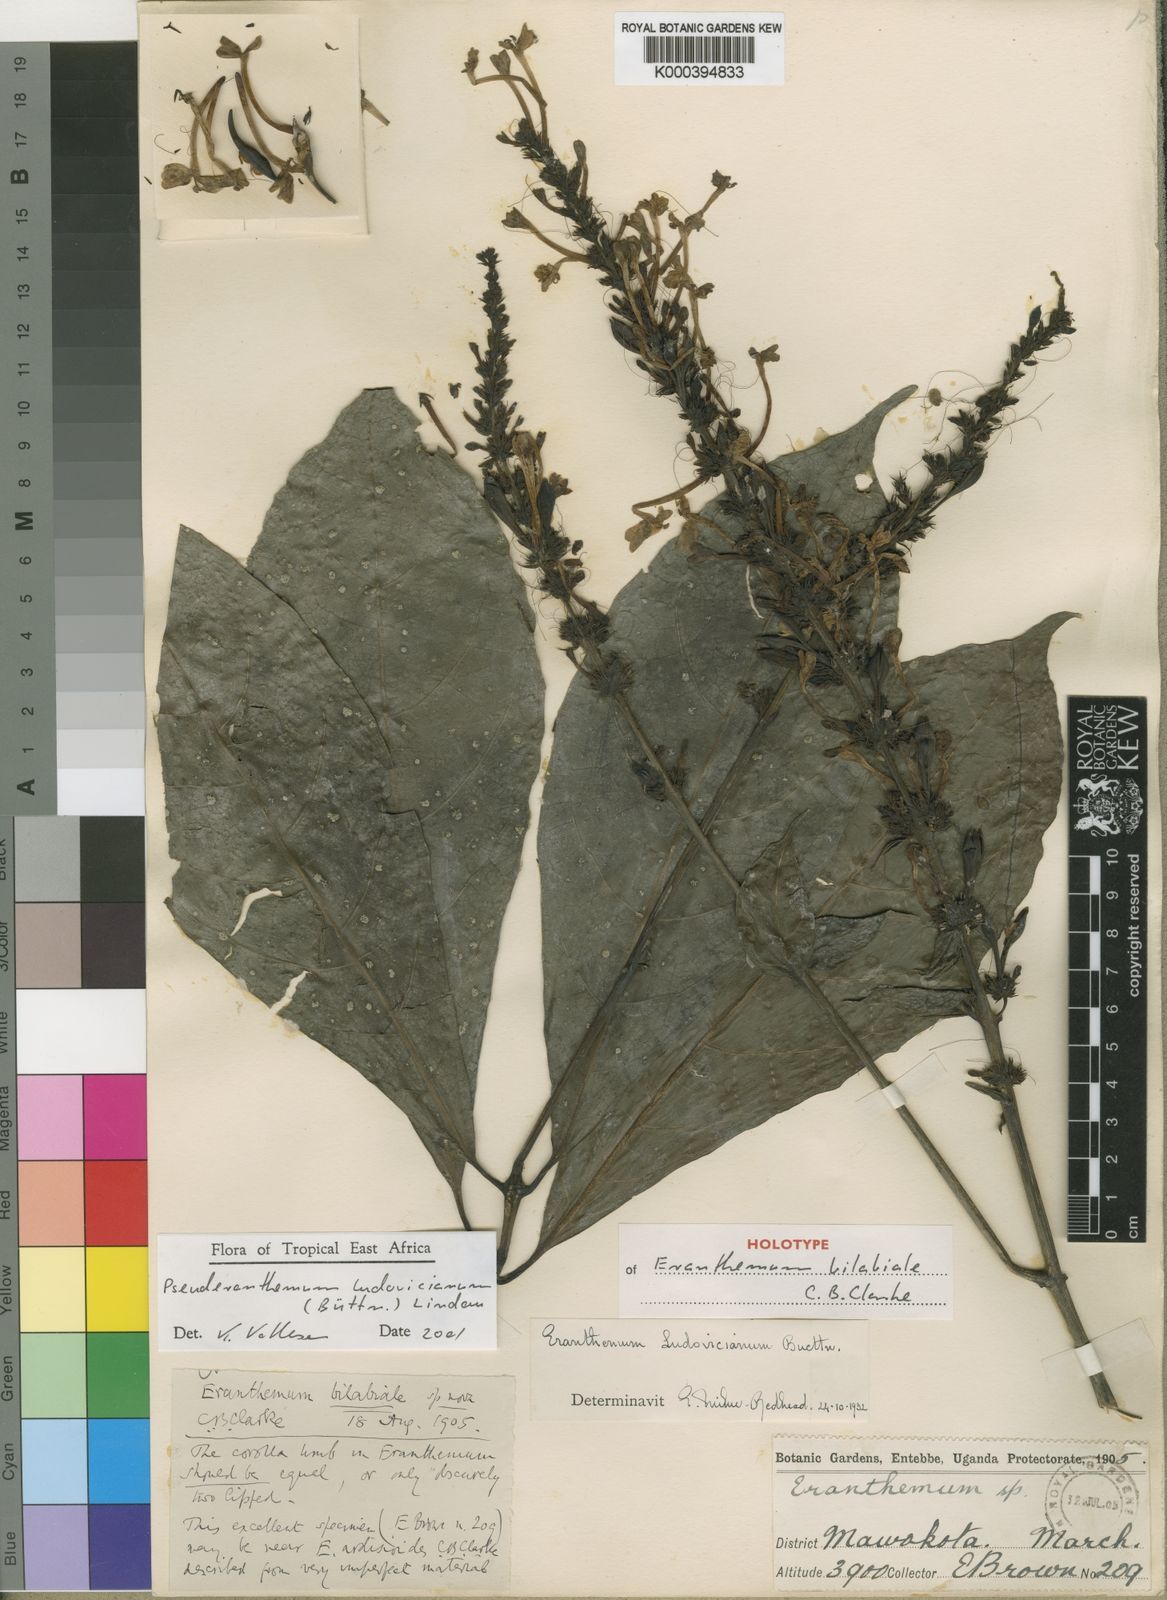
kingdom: Plantae
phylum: Tracheophyta
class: Magnoliopsida
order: Lamiales
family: Acanthaceae
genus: Pseuderanthemum
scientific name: Pseuderanthemum
